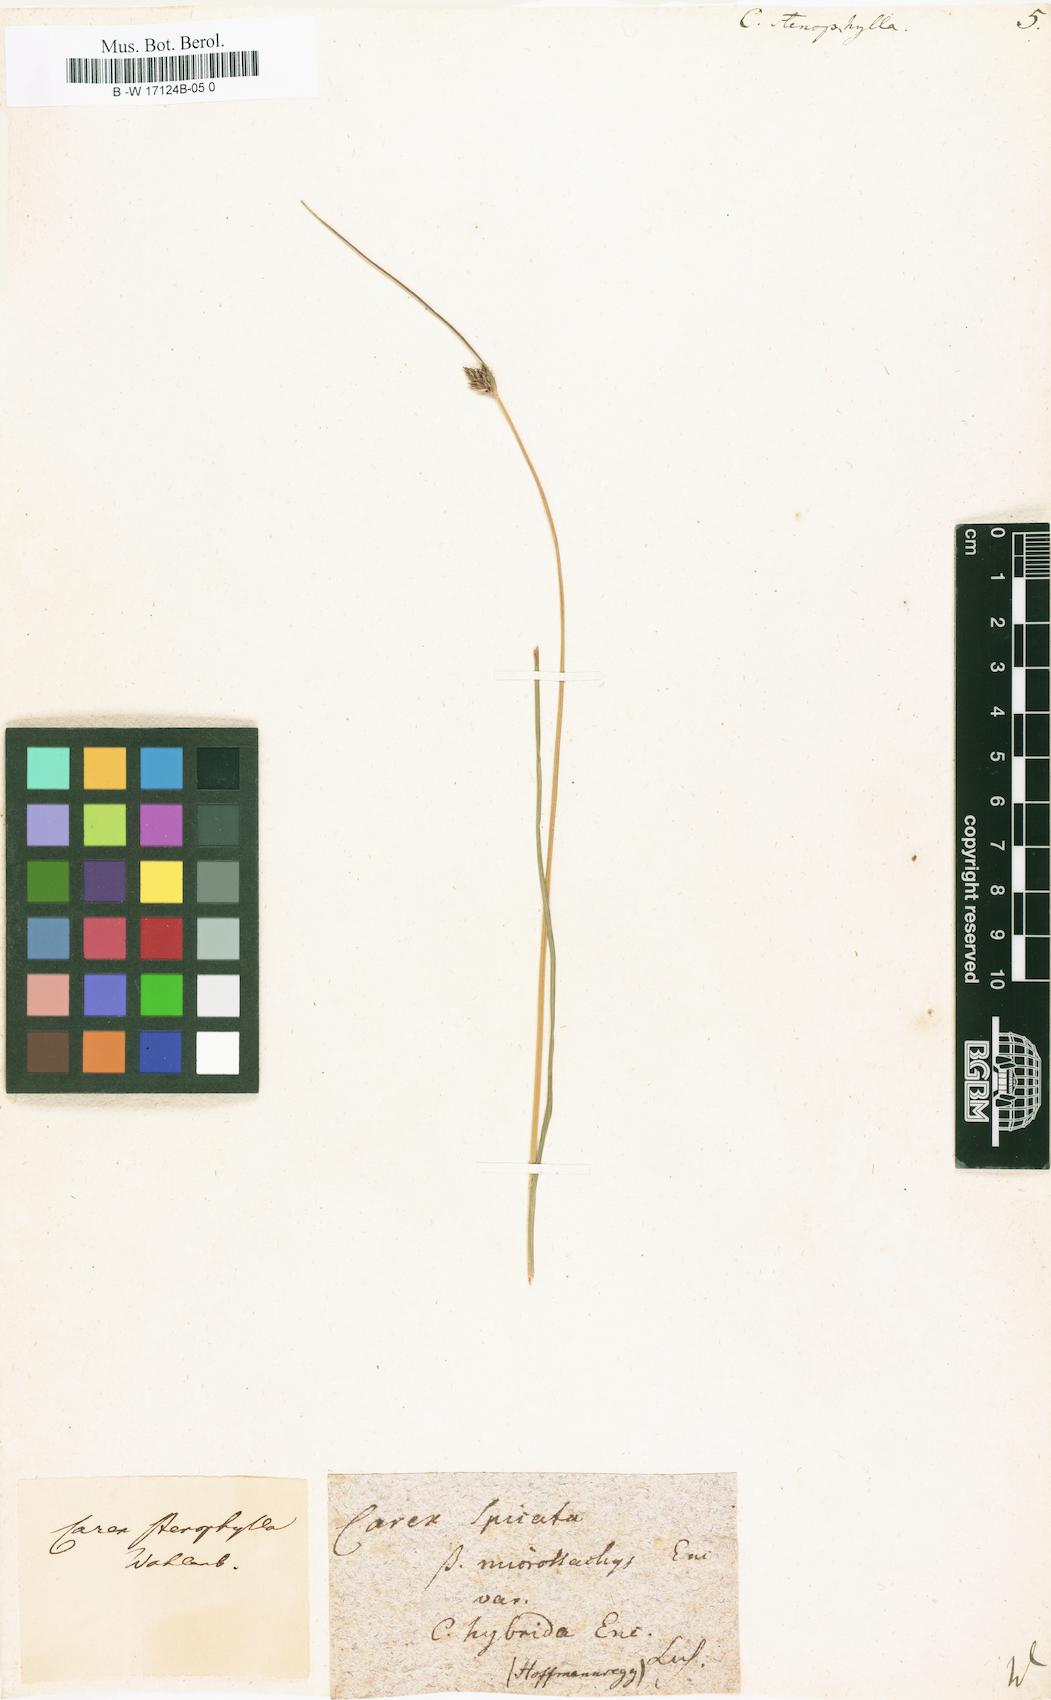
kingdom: Plantae
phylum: Tracheophyta
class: Liliopsida
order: Poales
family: Cyperaceae
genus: Carex
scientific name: Carex stenophylla
